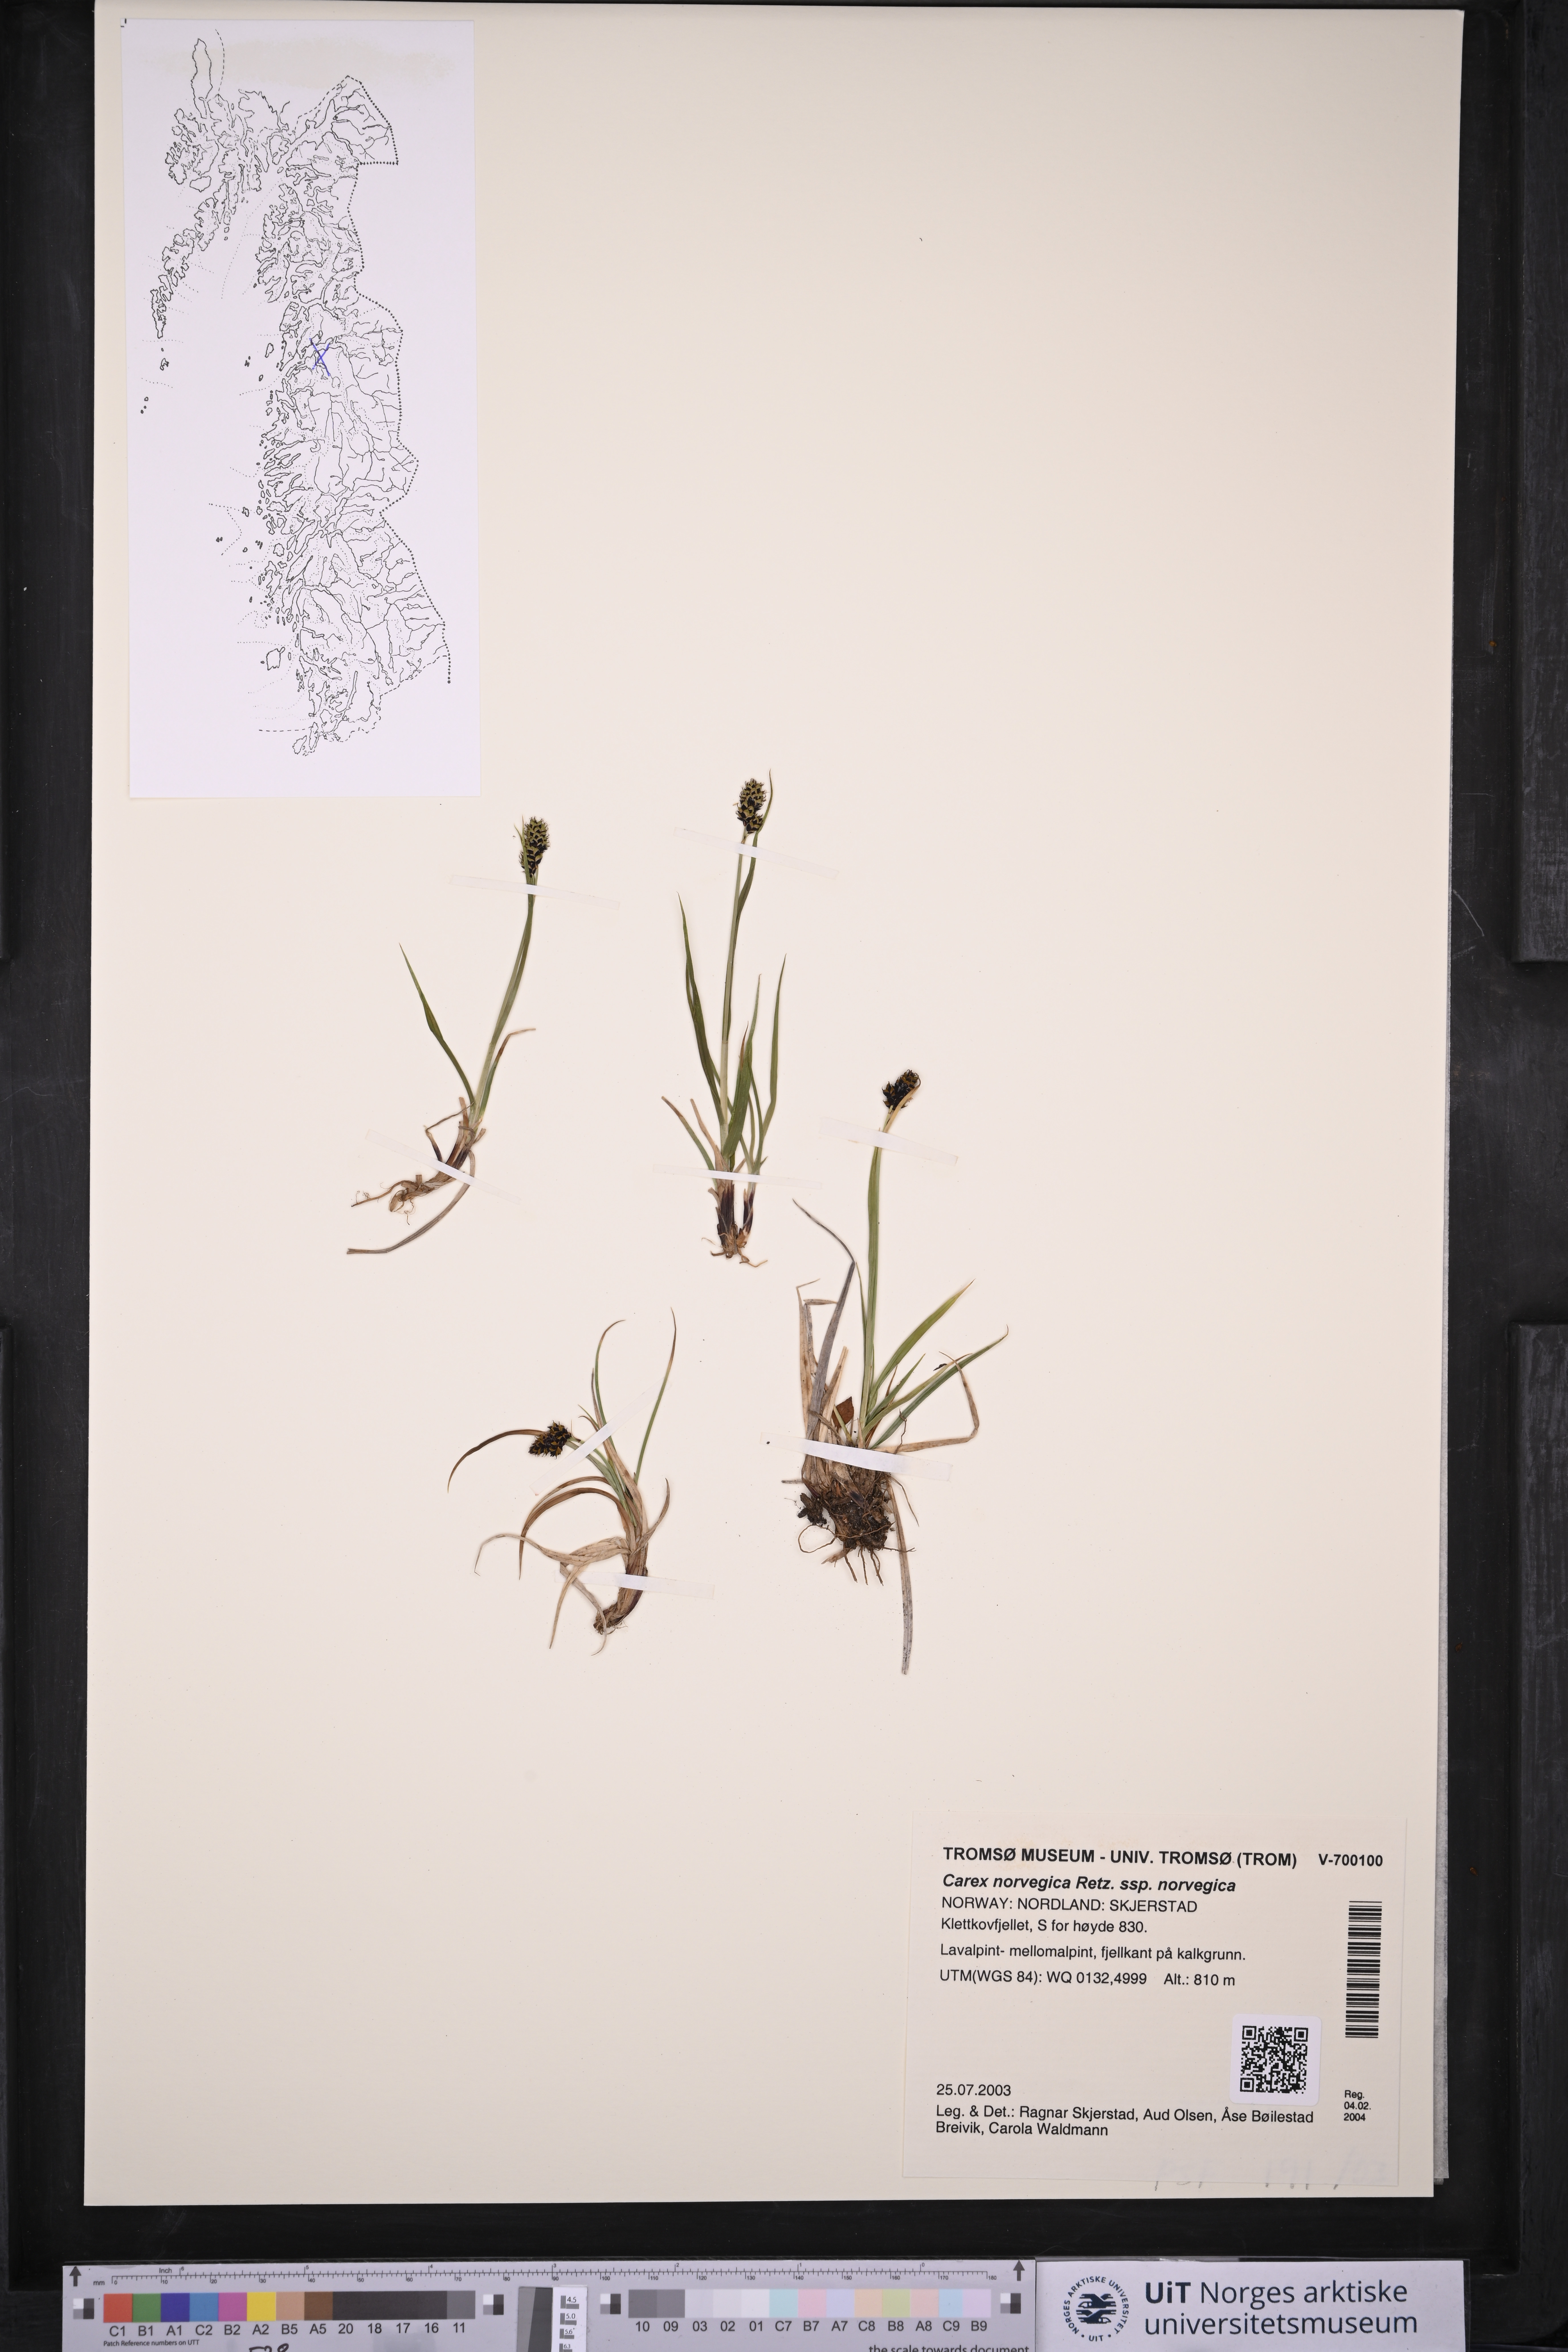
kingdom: Plantae
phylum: Tracheophyta
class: Liliopsida
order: Poales
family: Cyperaceae
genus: Carex
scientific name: Carex norvegica
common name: Close-headed alpine-sedge
